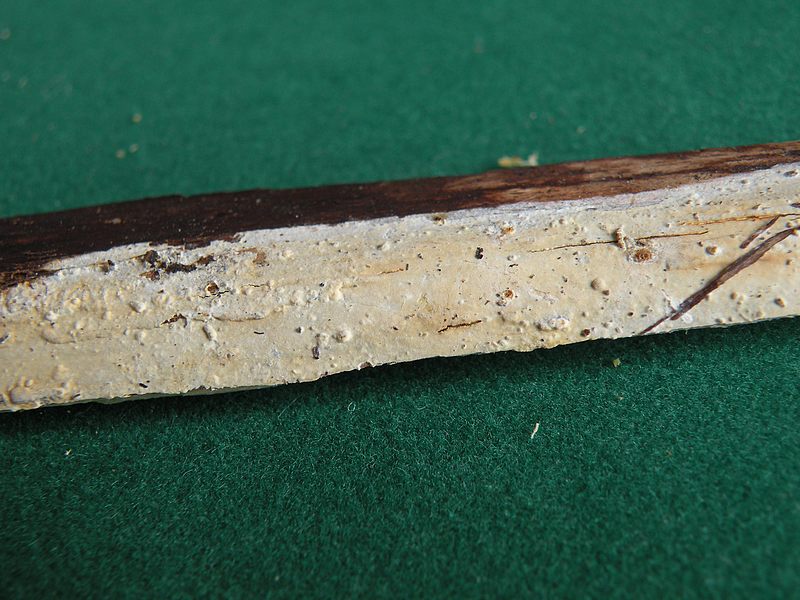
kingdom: Fungi
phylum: Basidiomycota
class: Agaricomycetes
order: Russulales
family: Stereaceae
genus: Megalocystidium
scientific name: Megalocystidium leucoxanthum
